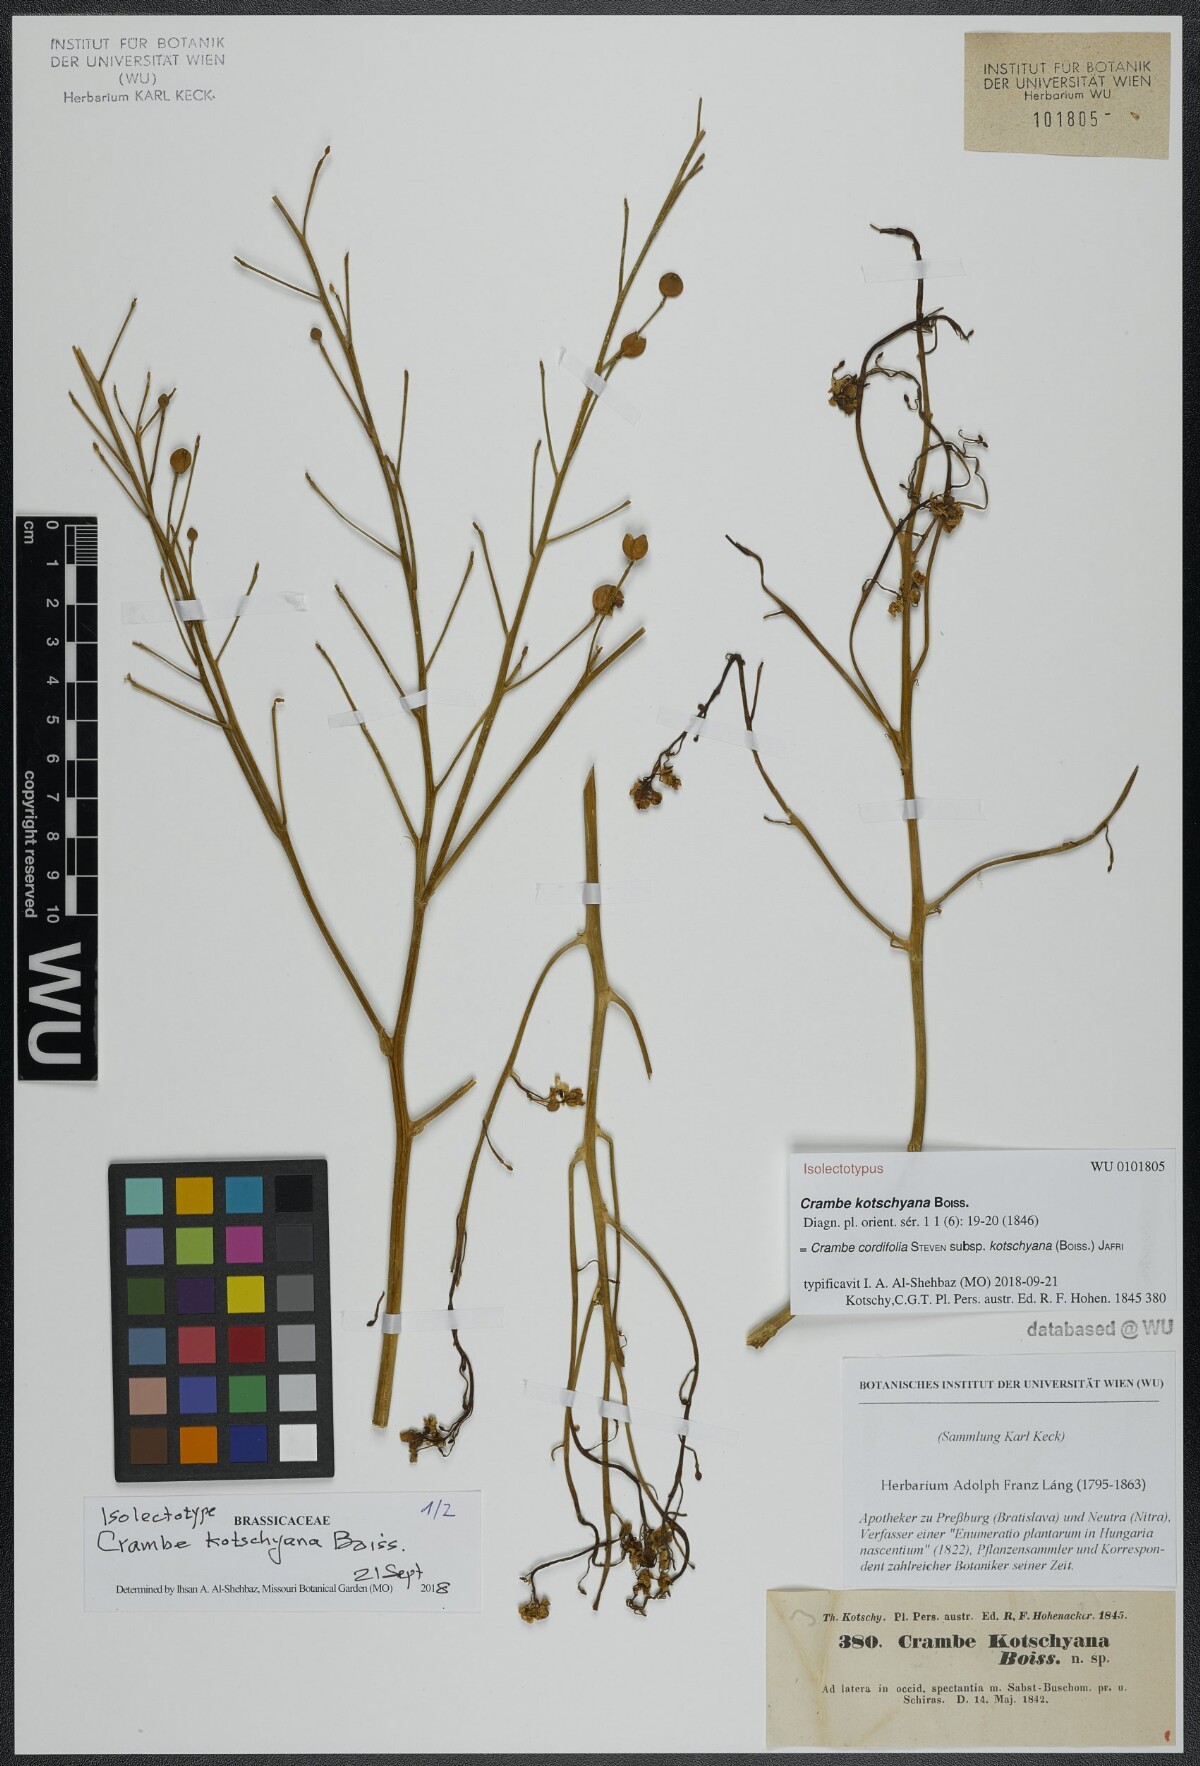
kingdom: Plantae
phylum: Tracheophyta
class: Magnoliopsida
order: Brassicales
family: Brassicaceae
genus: Crambe
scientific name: Crambe kotschyana
